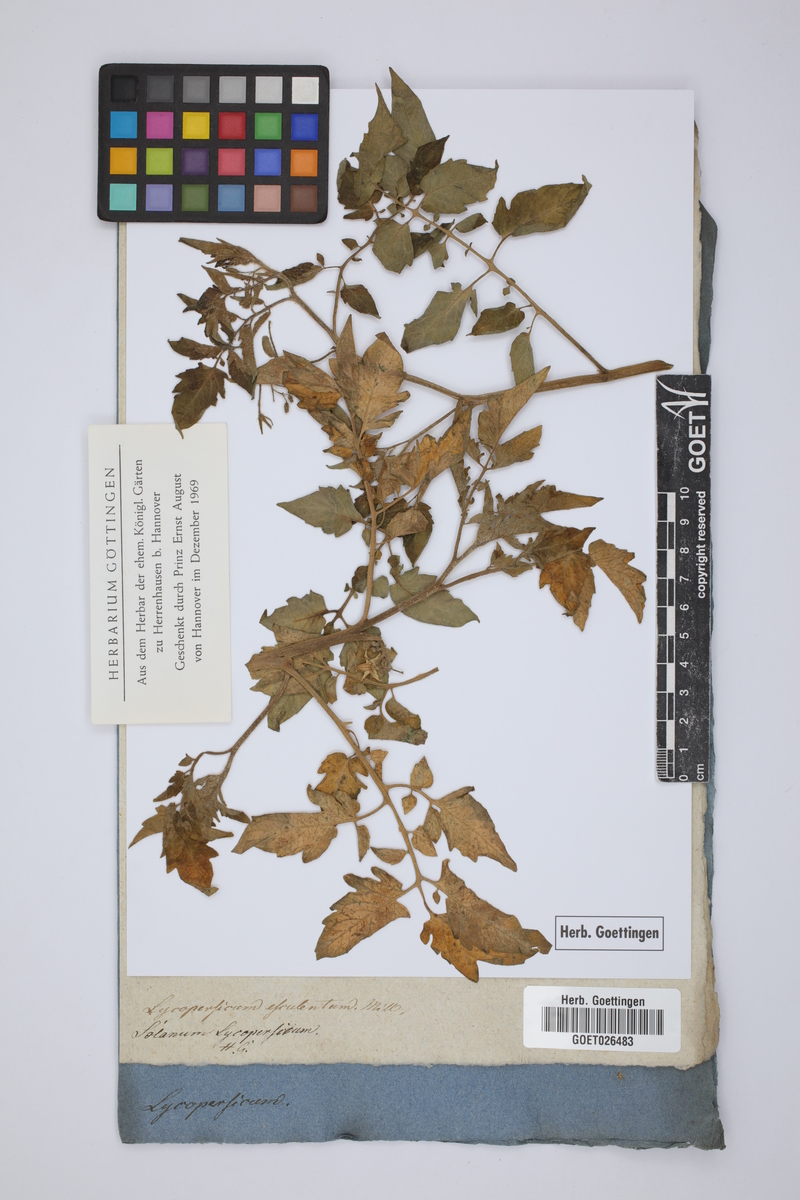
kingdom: Plantae
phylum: Tracheophyta
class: Magnoliopsida
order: Solanales
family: Solanaceae
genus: Solanum
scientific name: Solanum
